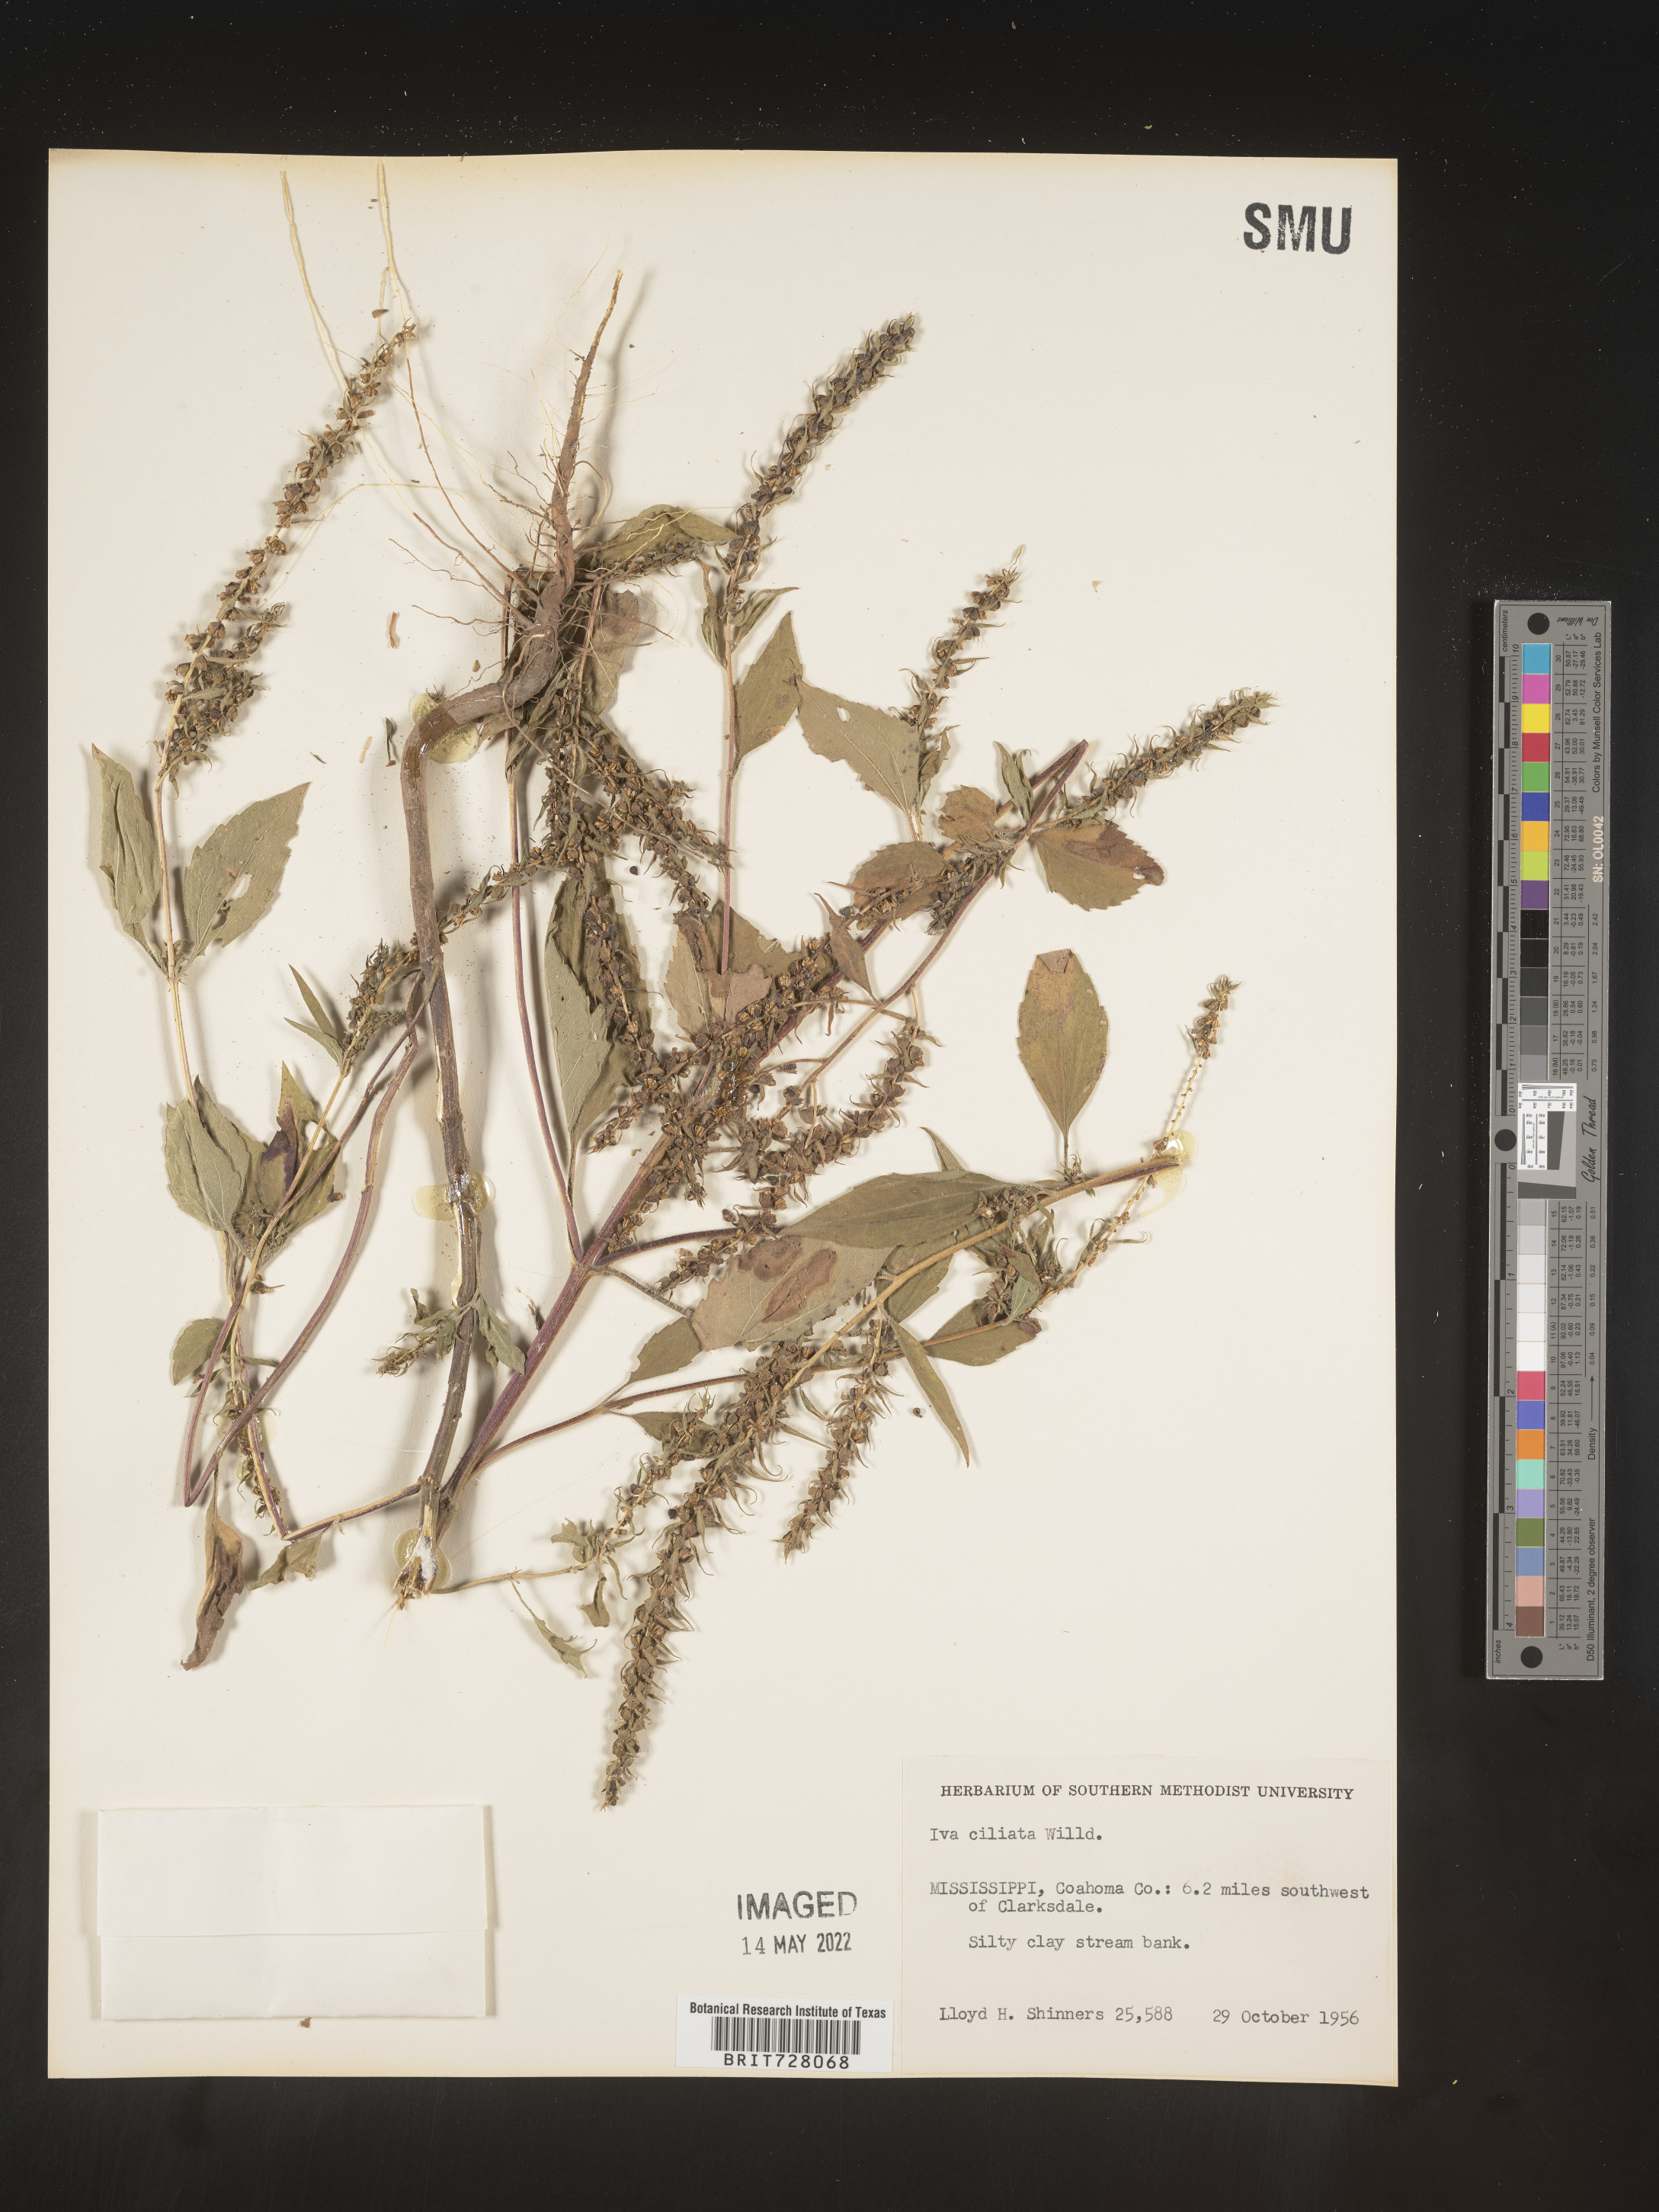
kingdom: Plantae
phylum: Tracheophyta
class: Magnoliopsida
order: Asterales
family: Asteraceae
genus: Iva
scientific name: Iva annua
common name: Marsh-elder
